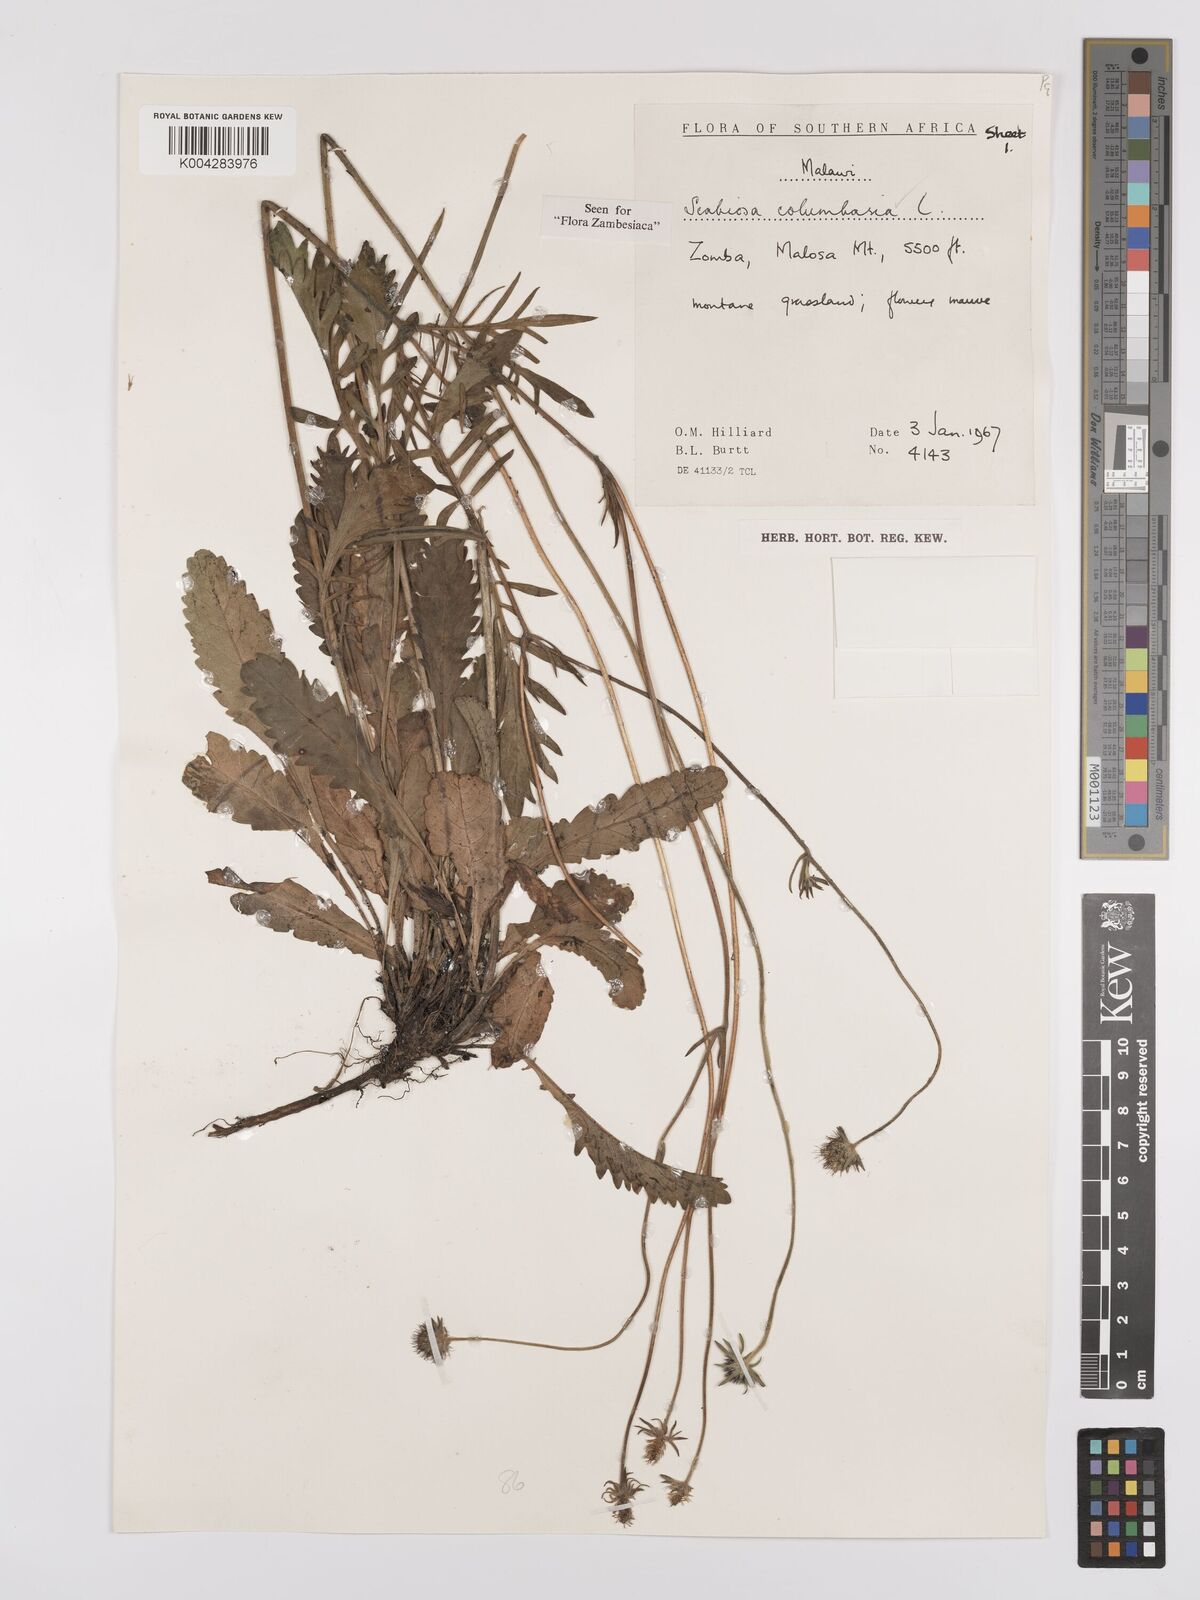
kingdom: Plantae
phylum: Tracheophyta
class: Magnoliopsida
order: Dipsacales
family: Caprifoliaceae
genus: Scabiosa
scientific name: Scabiosa columbaria
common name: Small scabious
